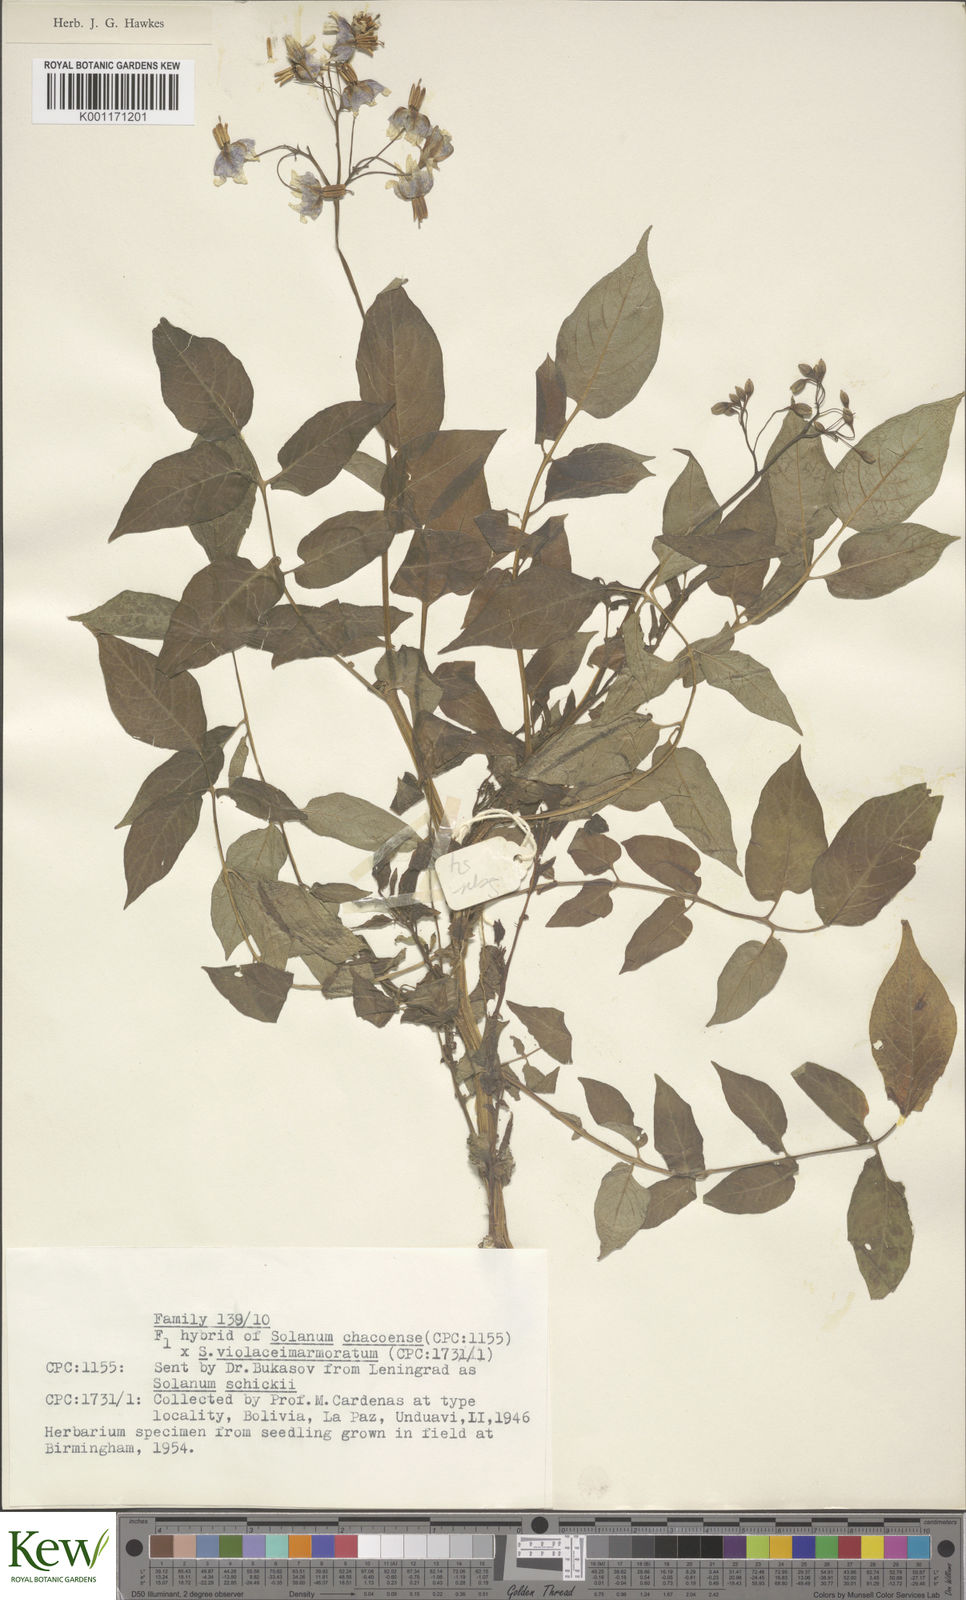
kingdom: Plantae
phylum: Tracheophyta
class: Magnoliopsida
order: Solanales
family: Solanaceae
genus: Solanum
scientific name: Solanum chacoense
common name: Chaco potato
